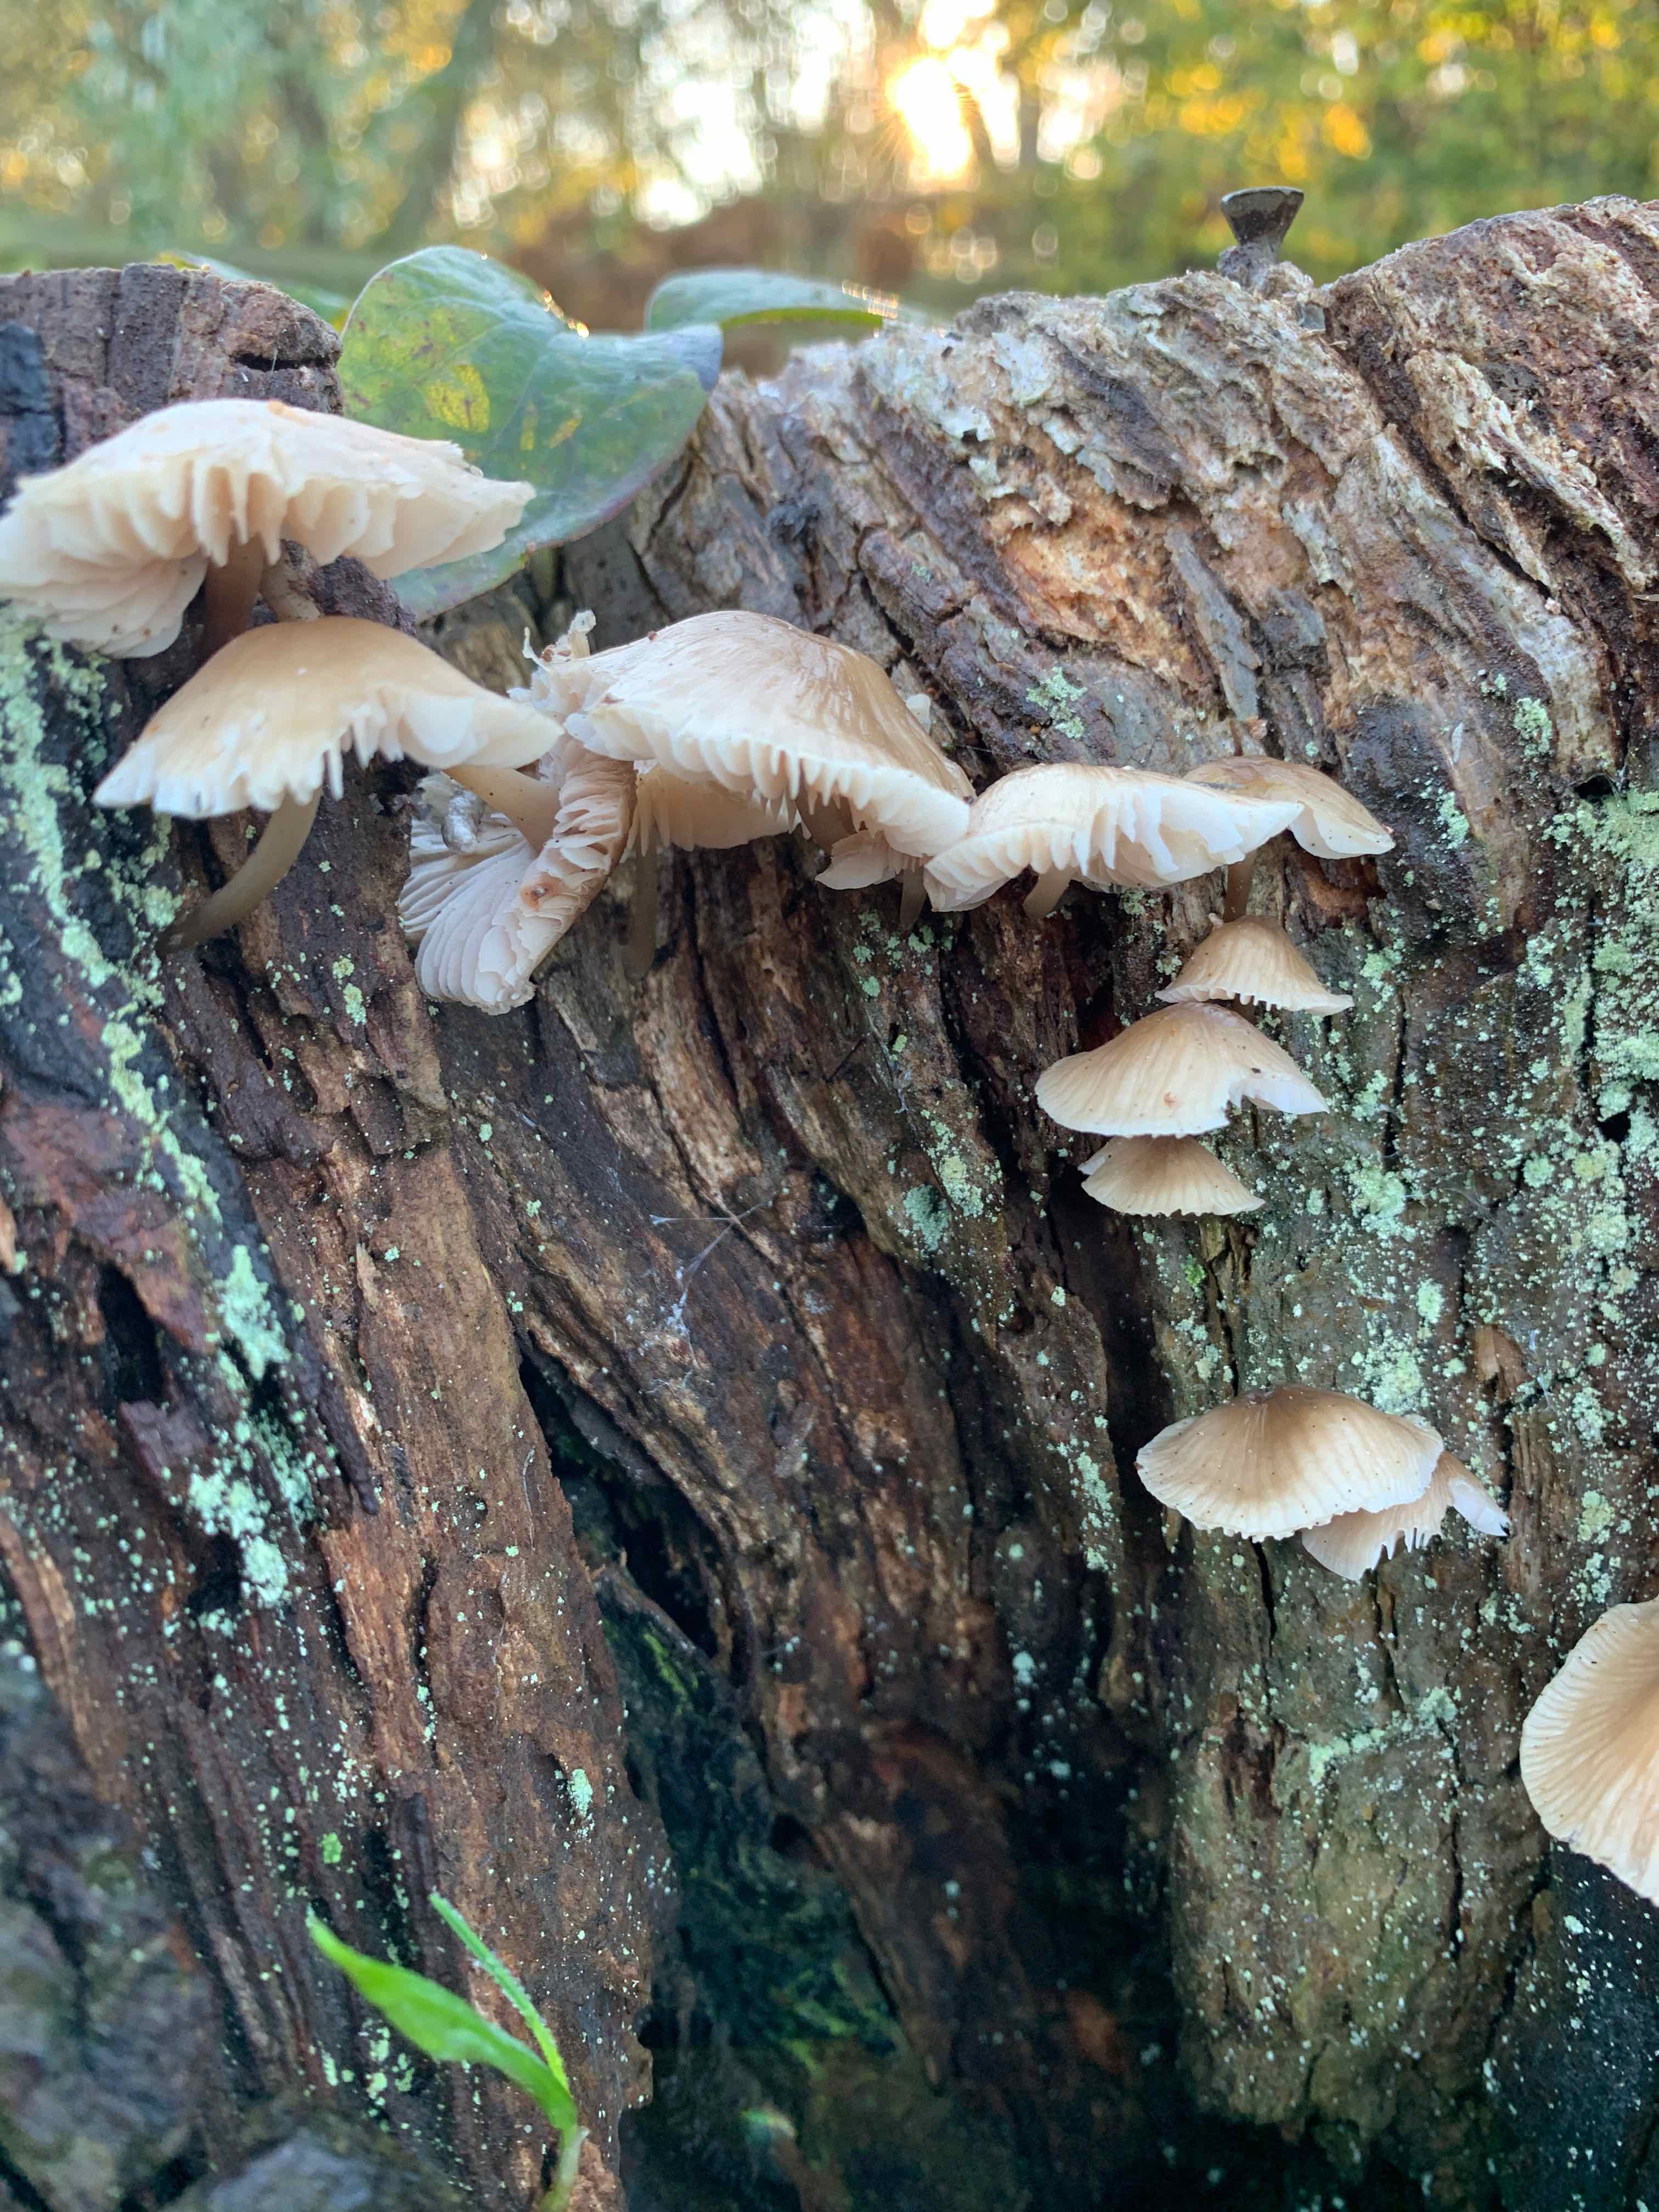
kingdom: Fungi
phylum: Basidiomycota
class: Agaricomycetes
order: Agaricales
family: Mycenaceae
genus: Mycena
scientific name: Mycena galericulata
